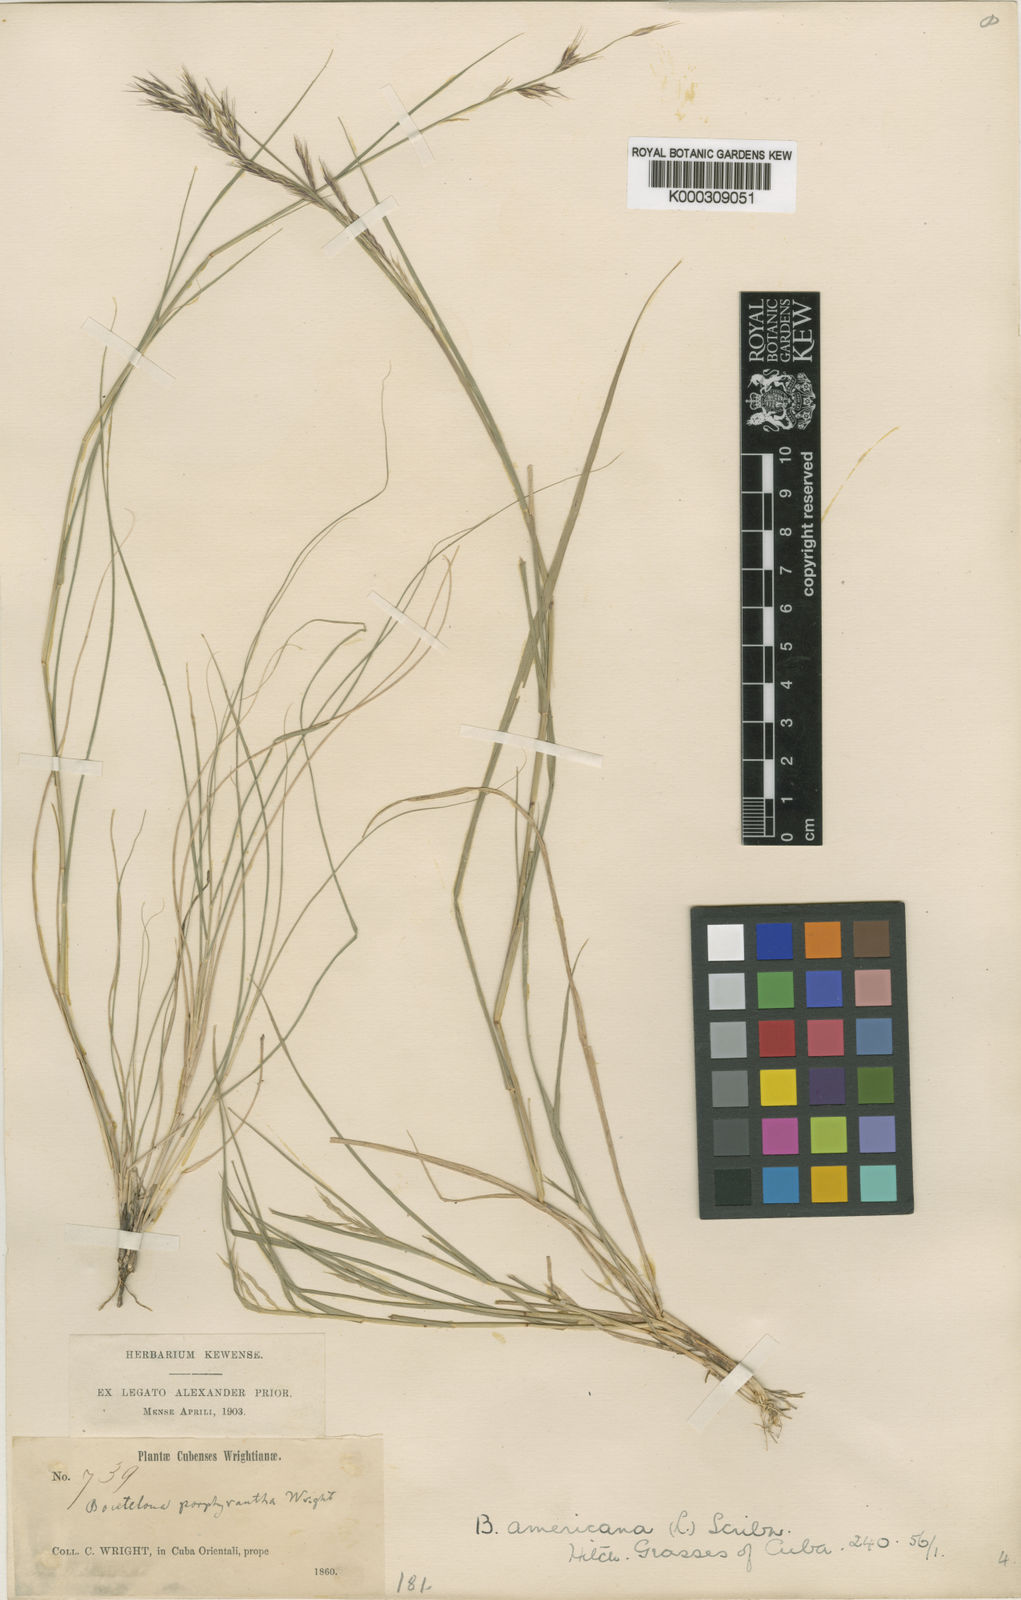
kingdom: Plantae
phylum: Tracheophyta
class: Liliopsida
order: Poales
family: Poaceae
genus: Bouteloua
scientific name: Bouteloua repens
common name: Slender grama
